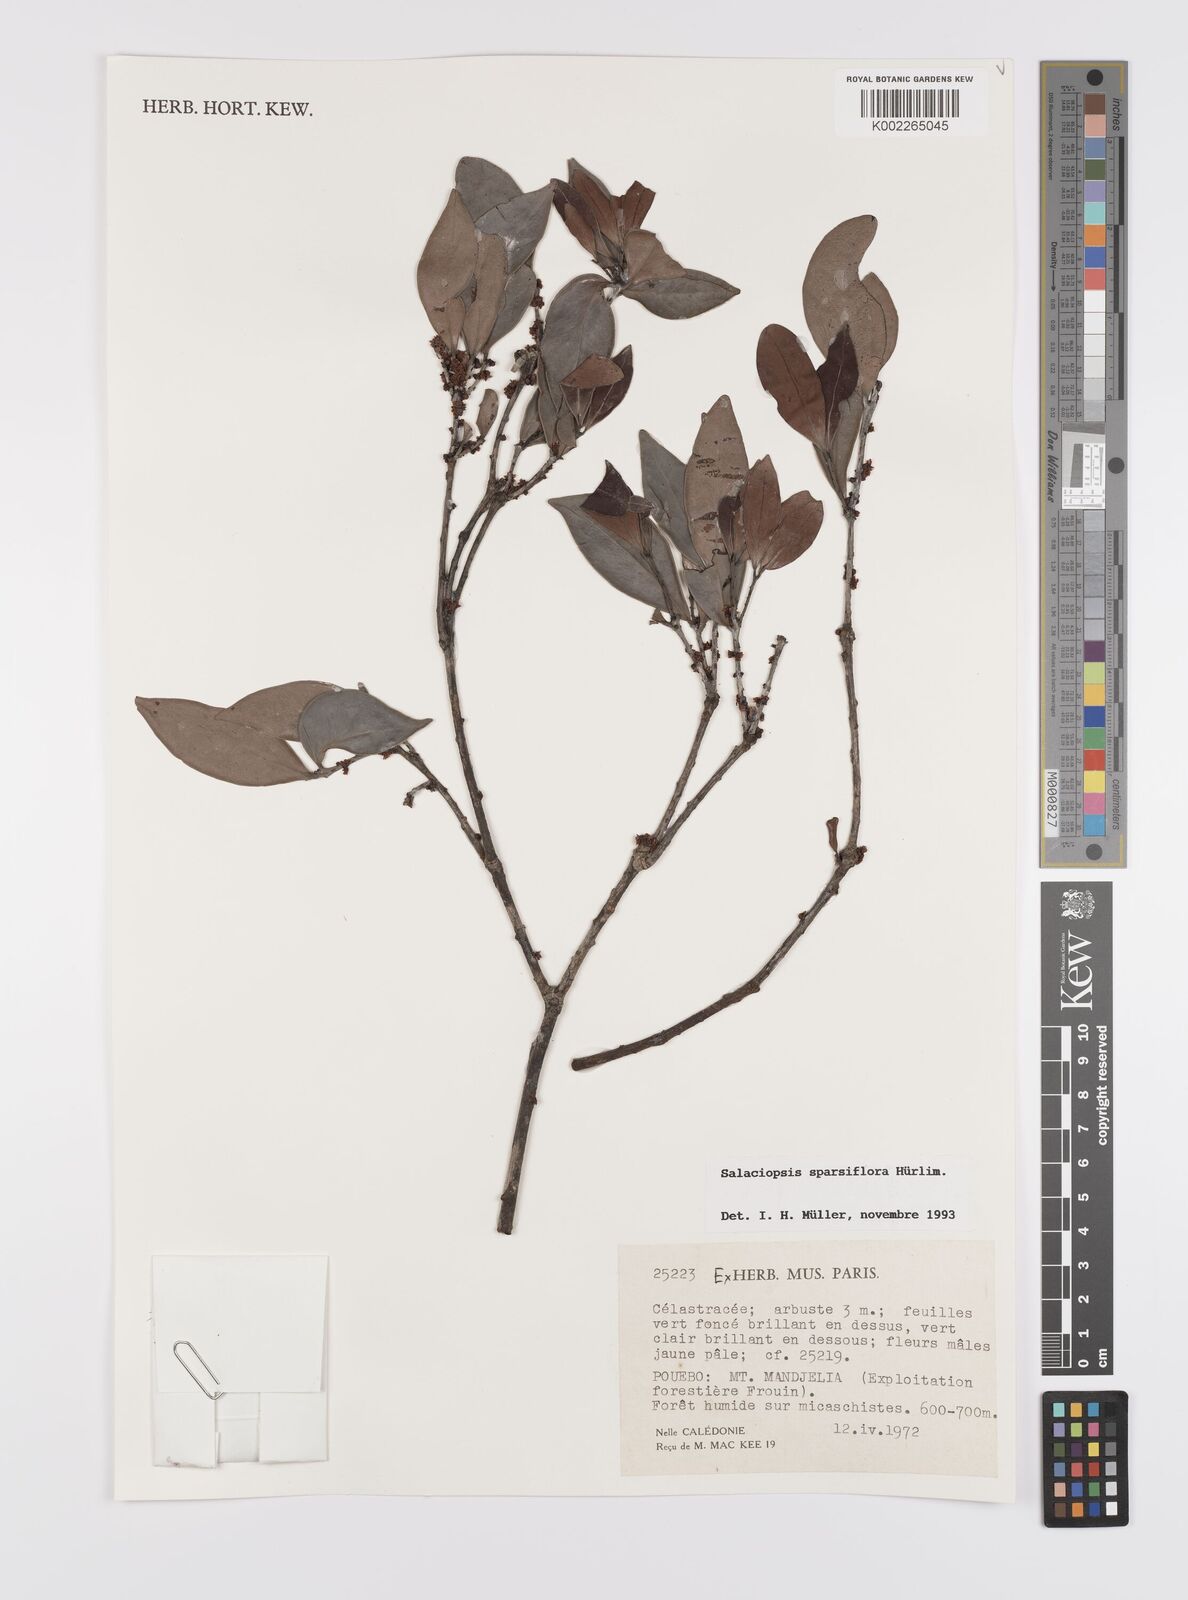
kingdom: Plantae
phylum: Tracheophyta
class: Magnoliopsida
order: Celastrales
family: Celastraceae
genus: Salaciopsis
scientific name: Salaciopsis sparsiflora
